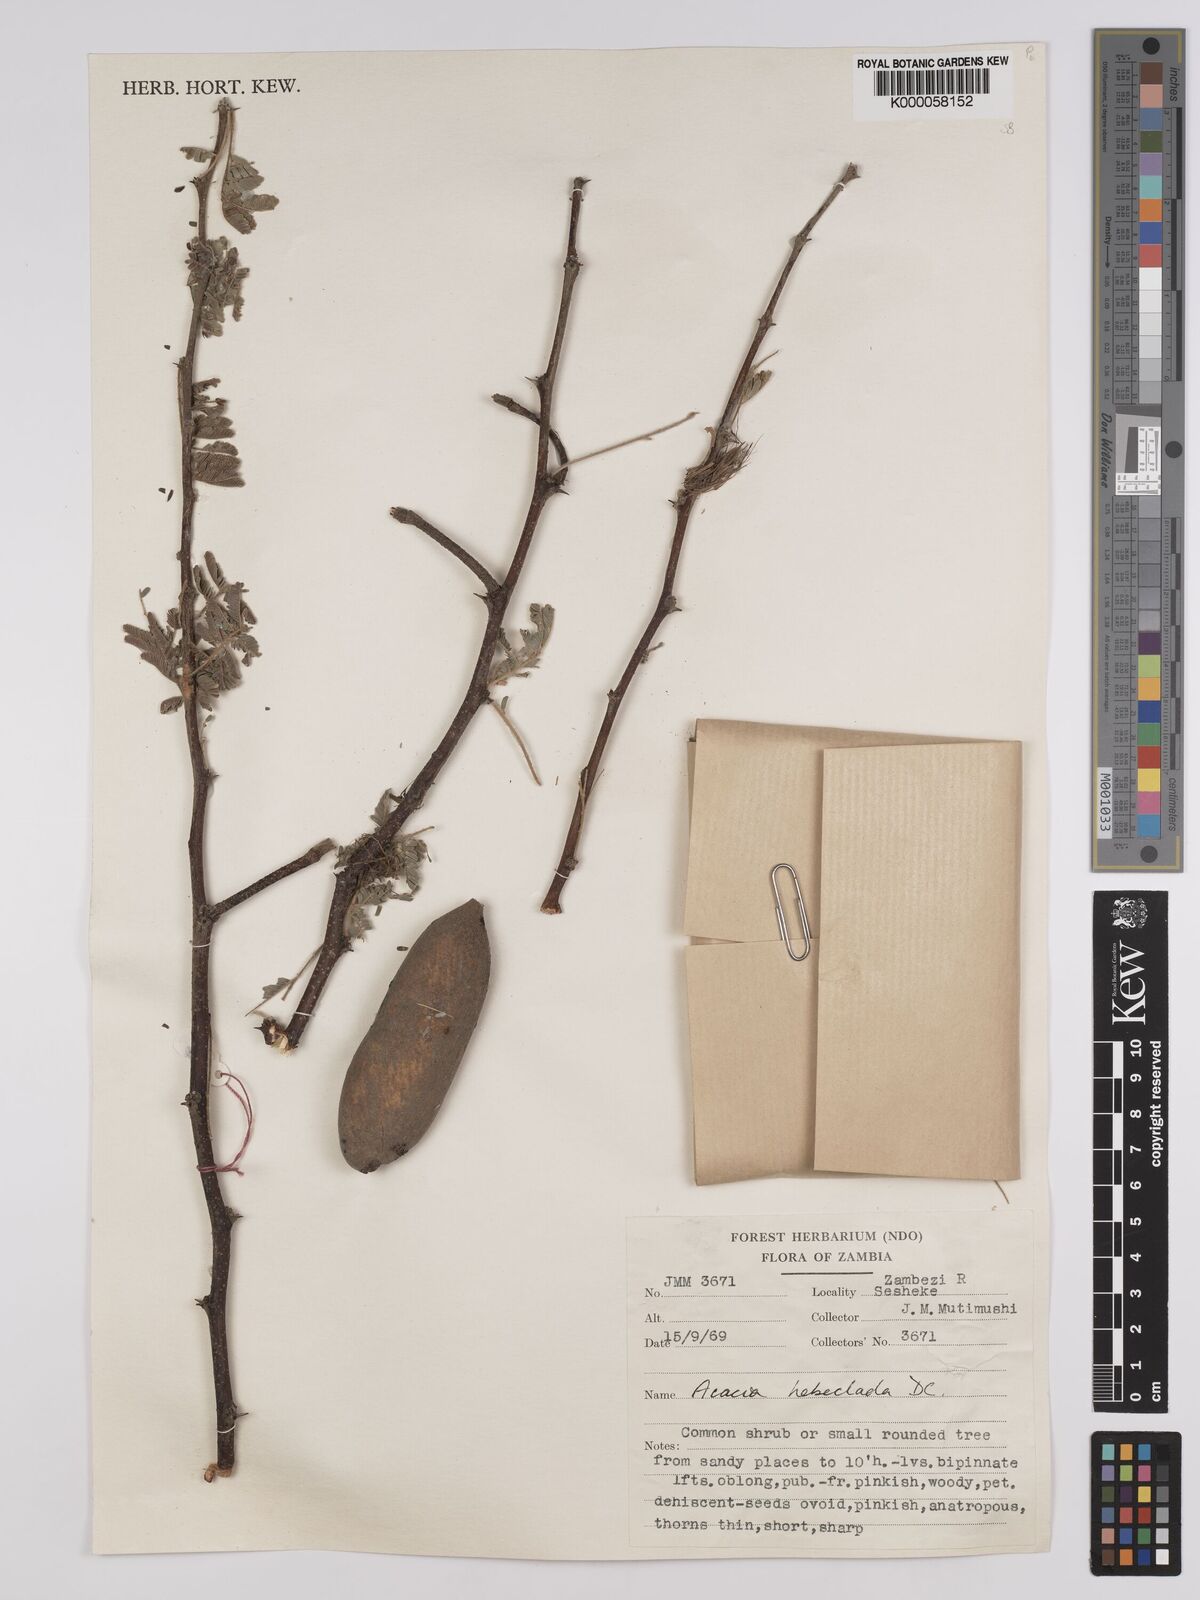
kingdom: Plantae
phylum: Tracheophyta
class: Magnoliopsida
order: Fabales
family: Fabaceae
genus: Vachellia
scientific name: Vachellia hebeclada
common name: Candle thorn
